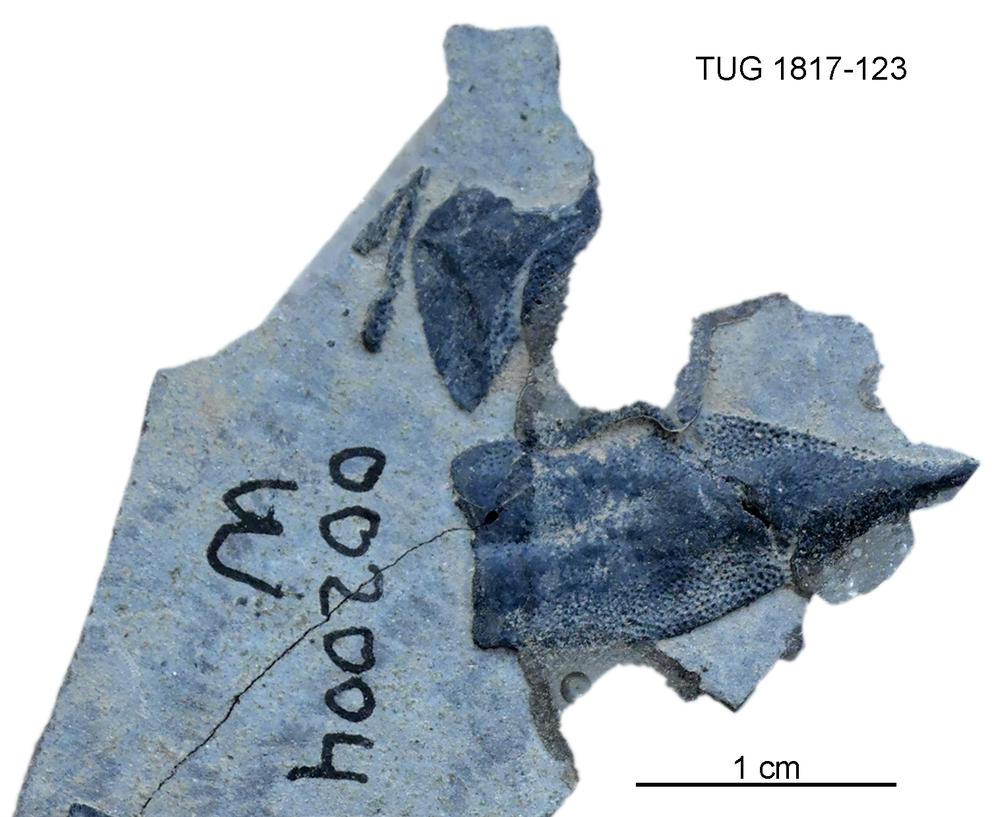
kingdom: Animalia
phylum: Chordata
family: Coccosteidae
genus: Millerosteus
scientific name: Millerosteus minor
